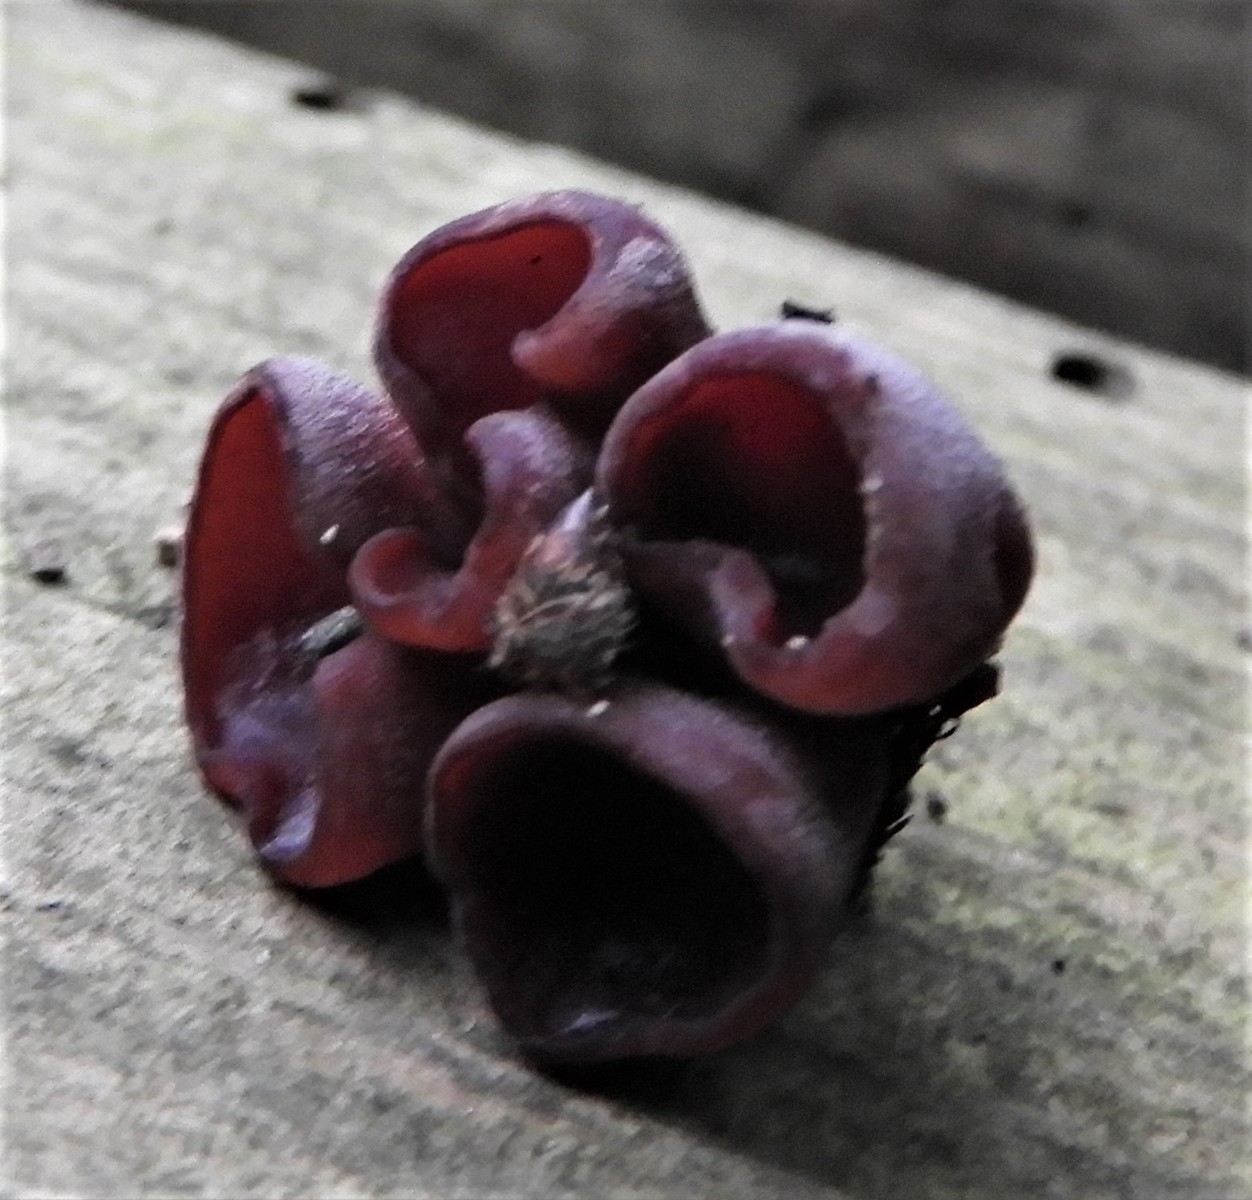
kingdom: Fungi
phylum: Ascomycota
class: Leotiomycetes
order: Helotiales
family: Gelatinodiscaceae
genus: Ascocoryne
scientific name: Ascocoryne cylichnium
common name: stor sejskive
